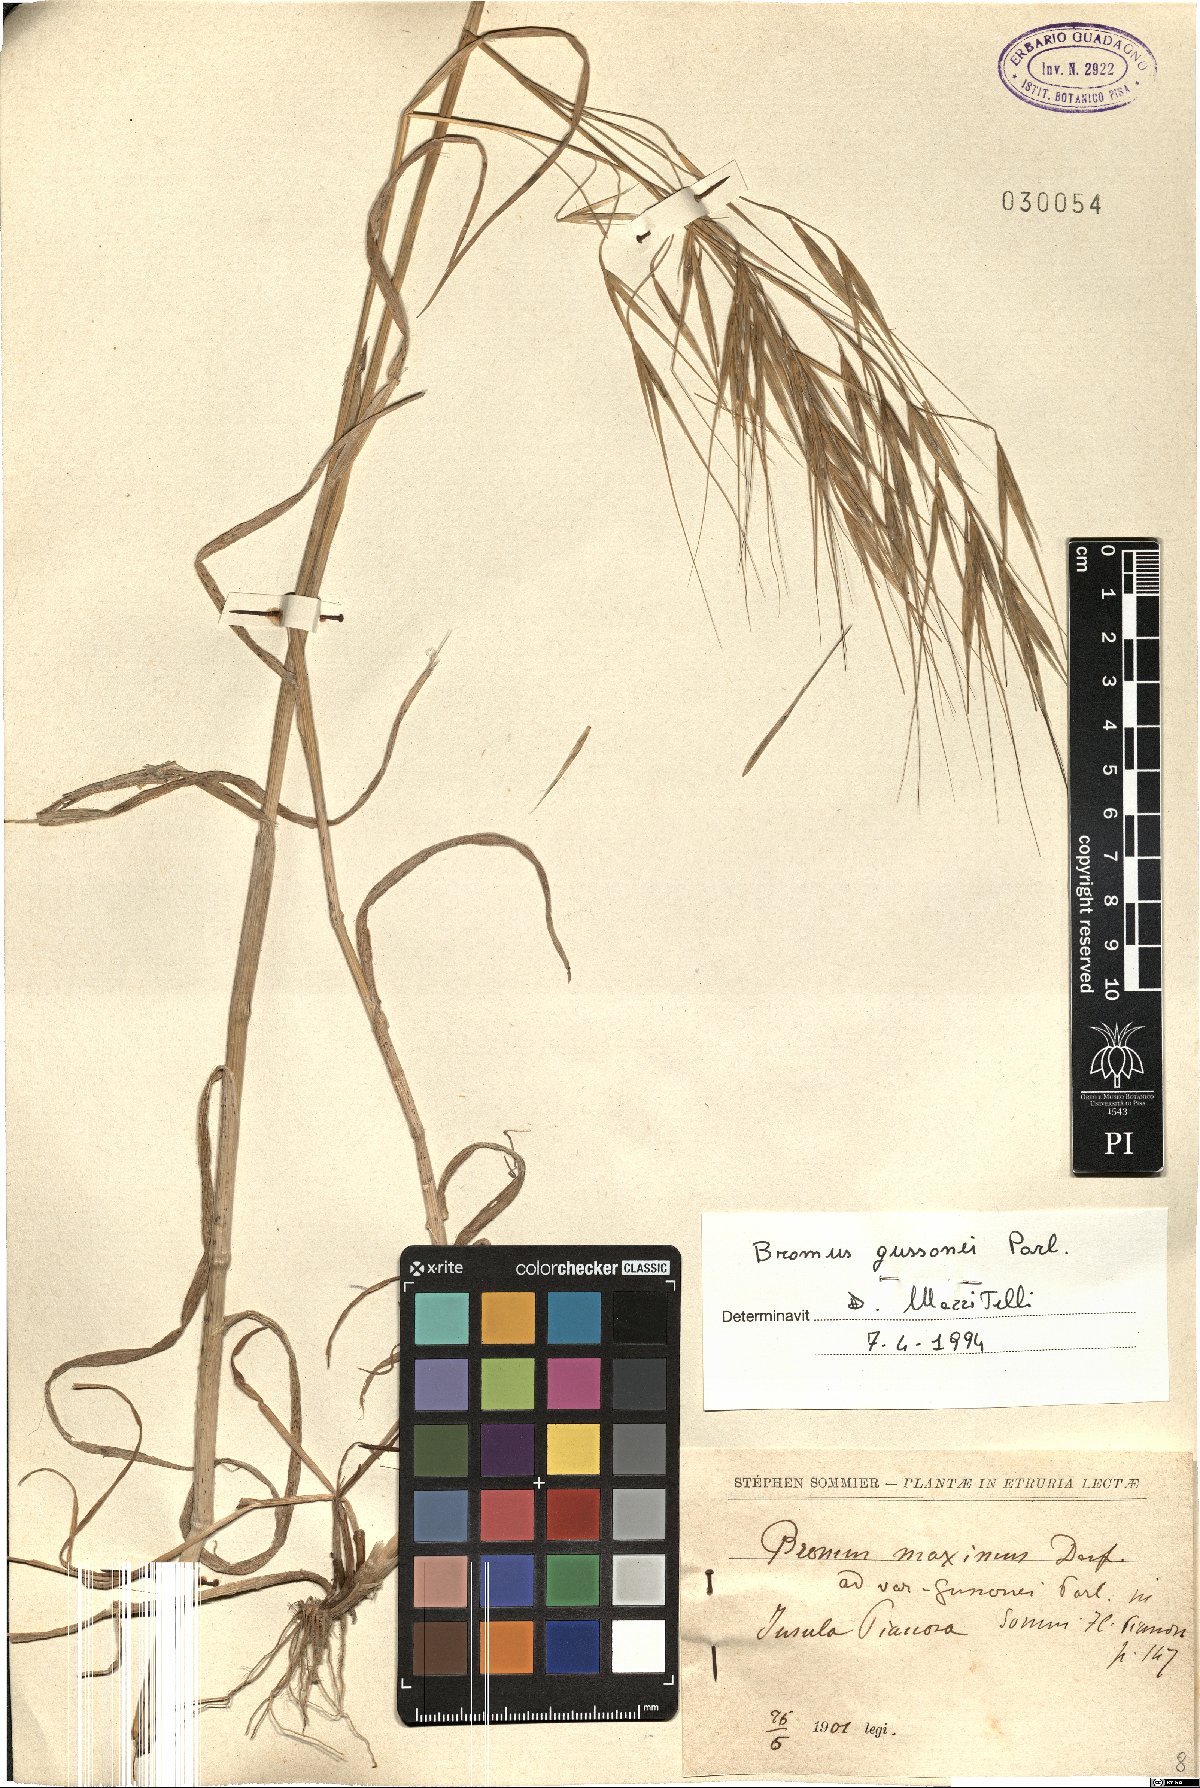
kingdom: Plantae
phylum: Tracheophyta
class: Liliopsida
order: Poales
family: Poaceae
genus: Bromus
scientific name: Bromus diandrus
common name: Ripgut brome
